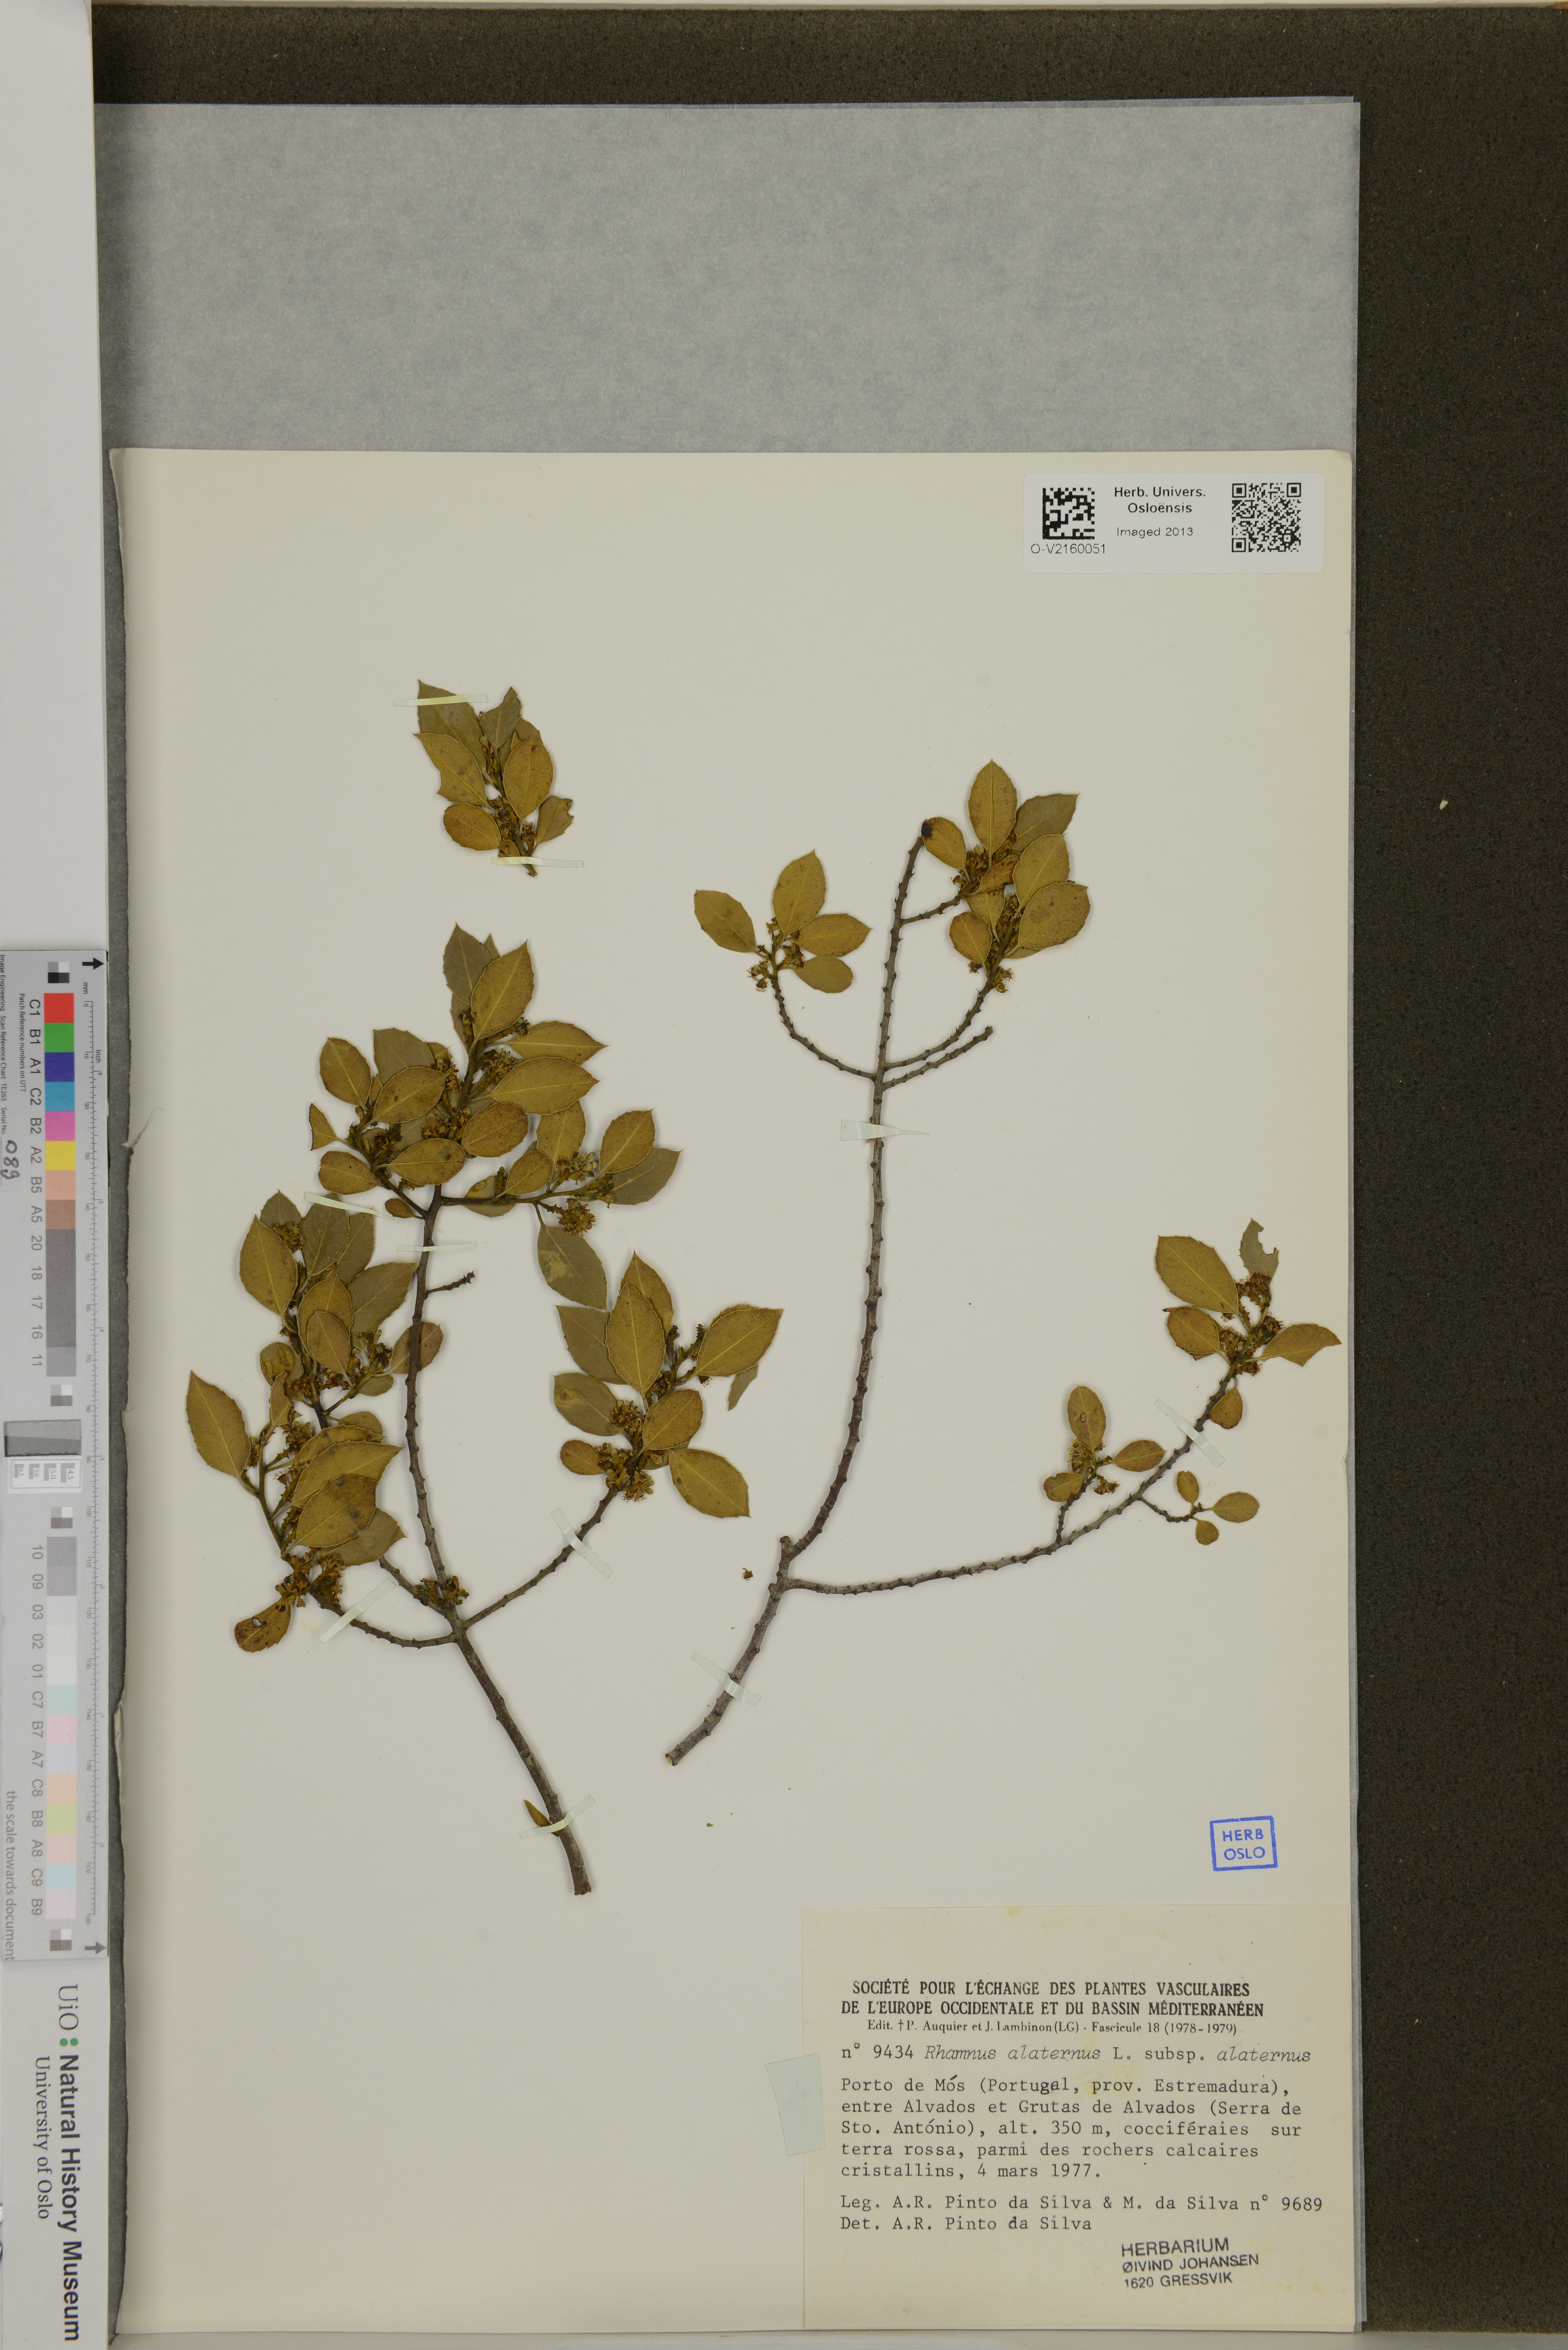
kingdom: Plantae
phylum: Tracheophyta
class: Magnoliopsida
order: Rosales
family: Rhamnaceae
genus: Rhamnus
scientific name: Rhamnus alaternus
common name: Mediterranean buckthorn
